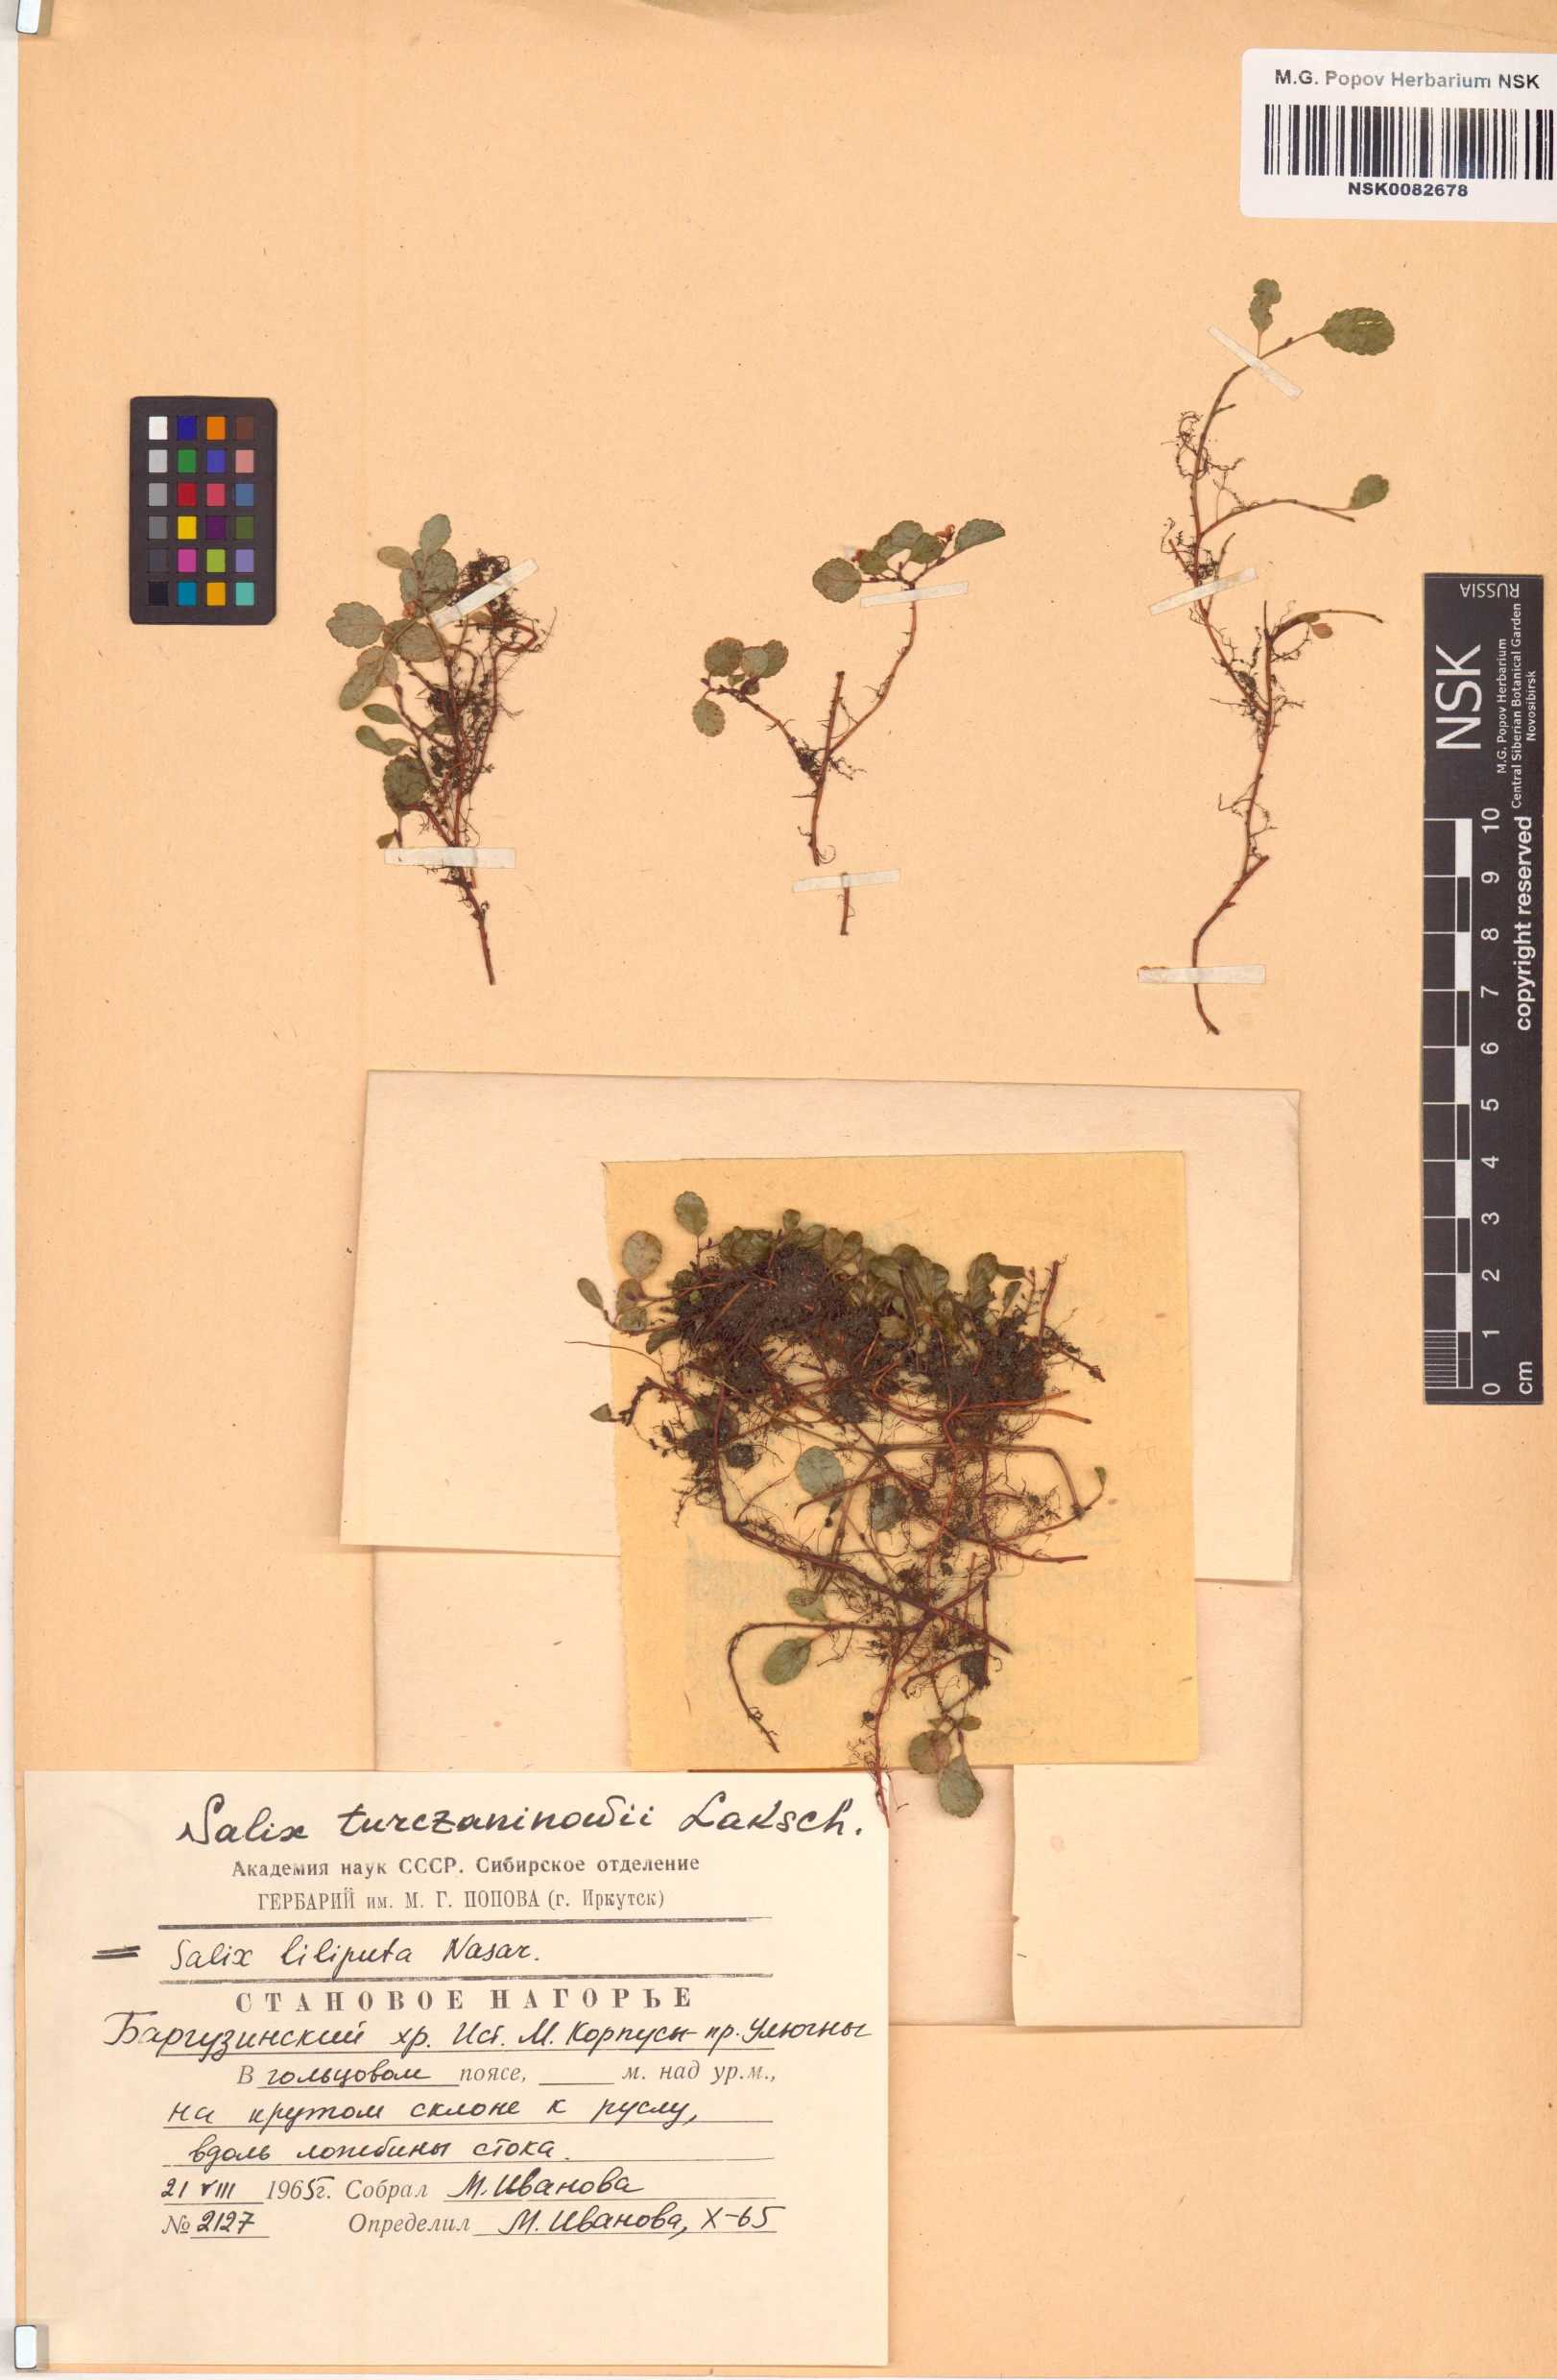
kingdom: Plantae
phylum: Tracheophyta
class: Magnoliopsida
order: Malpighiales
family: Salicaceae
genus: Salix
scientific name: Salix turczaninowii
